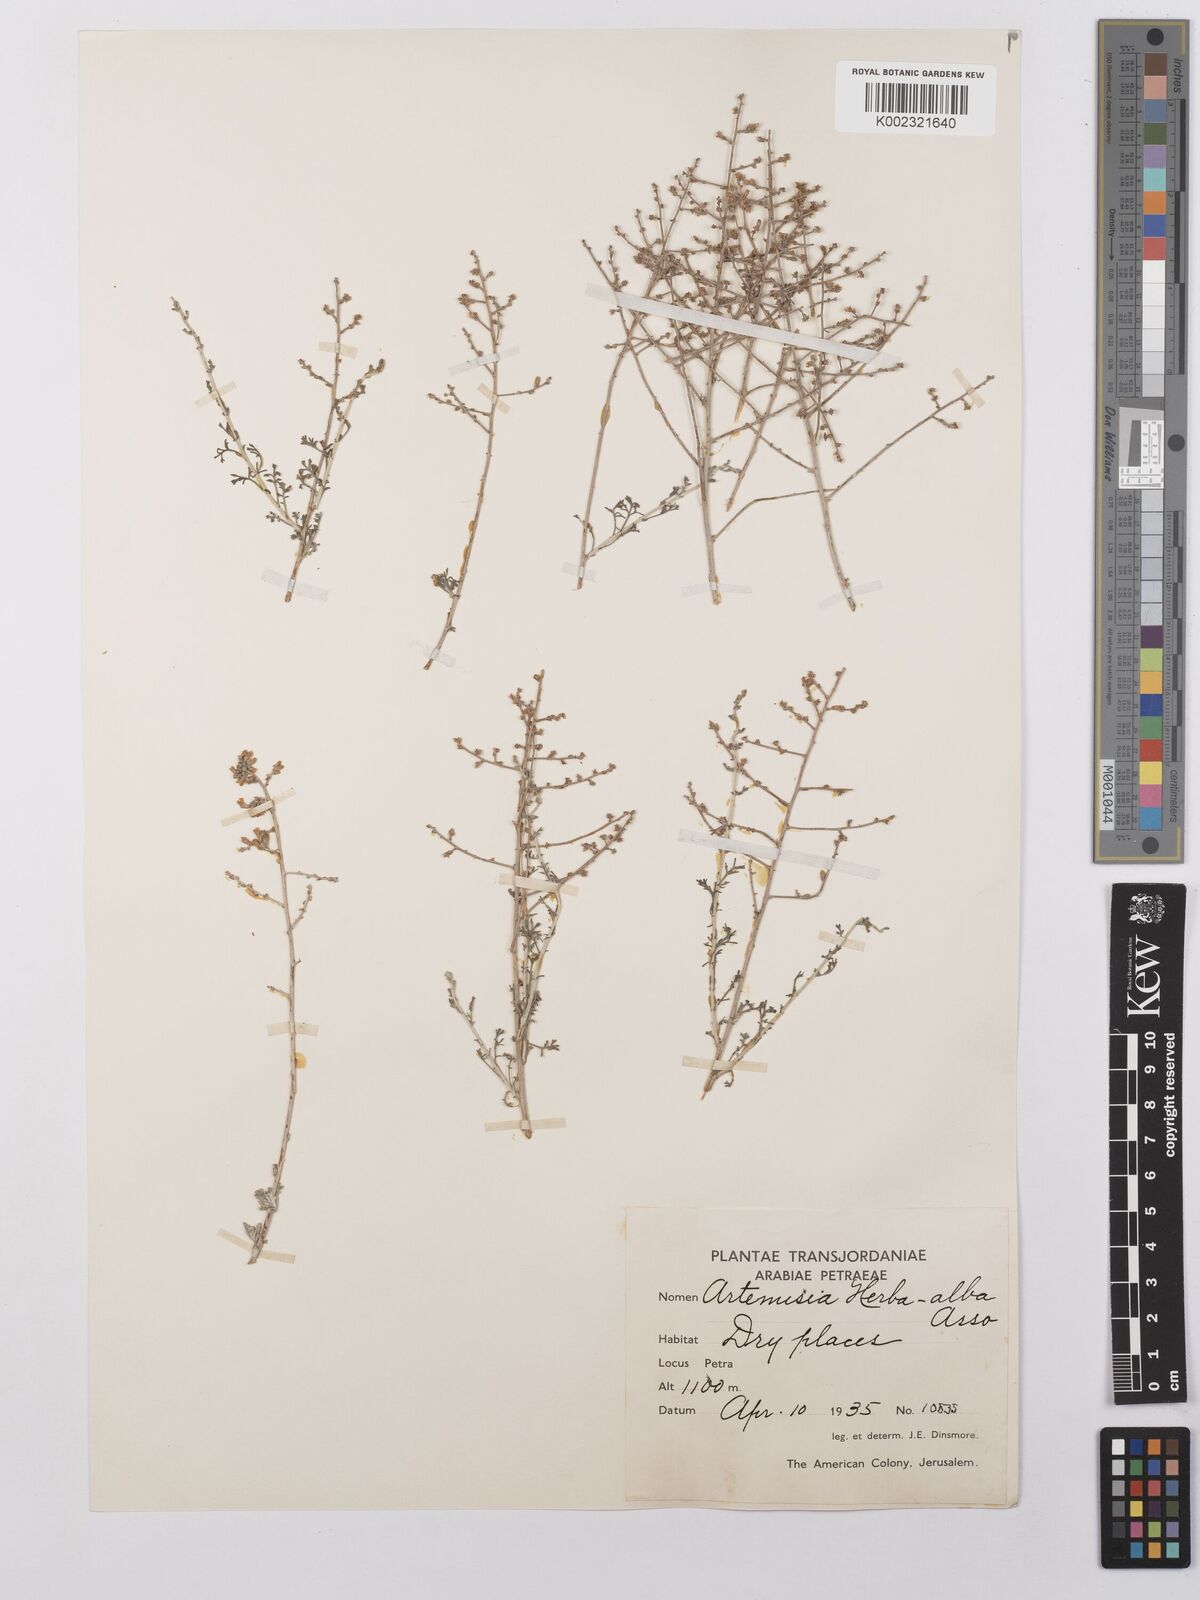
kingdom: Plantae
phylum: Tracheophyta
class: Magnoliopsida
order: Asterales
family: Asteraceae
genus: Seriphidium
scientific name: Seriphidium
